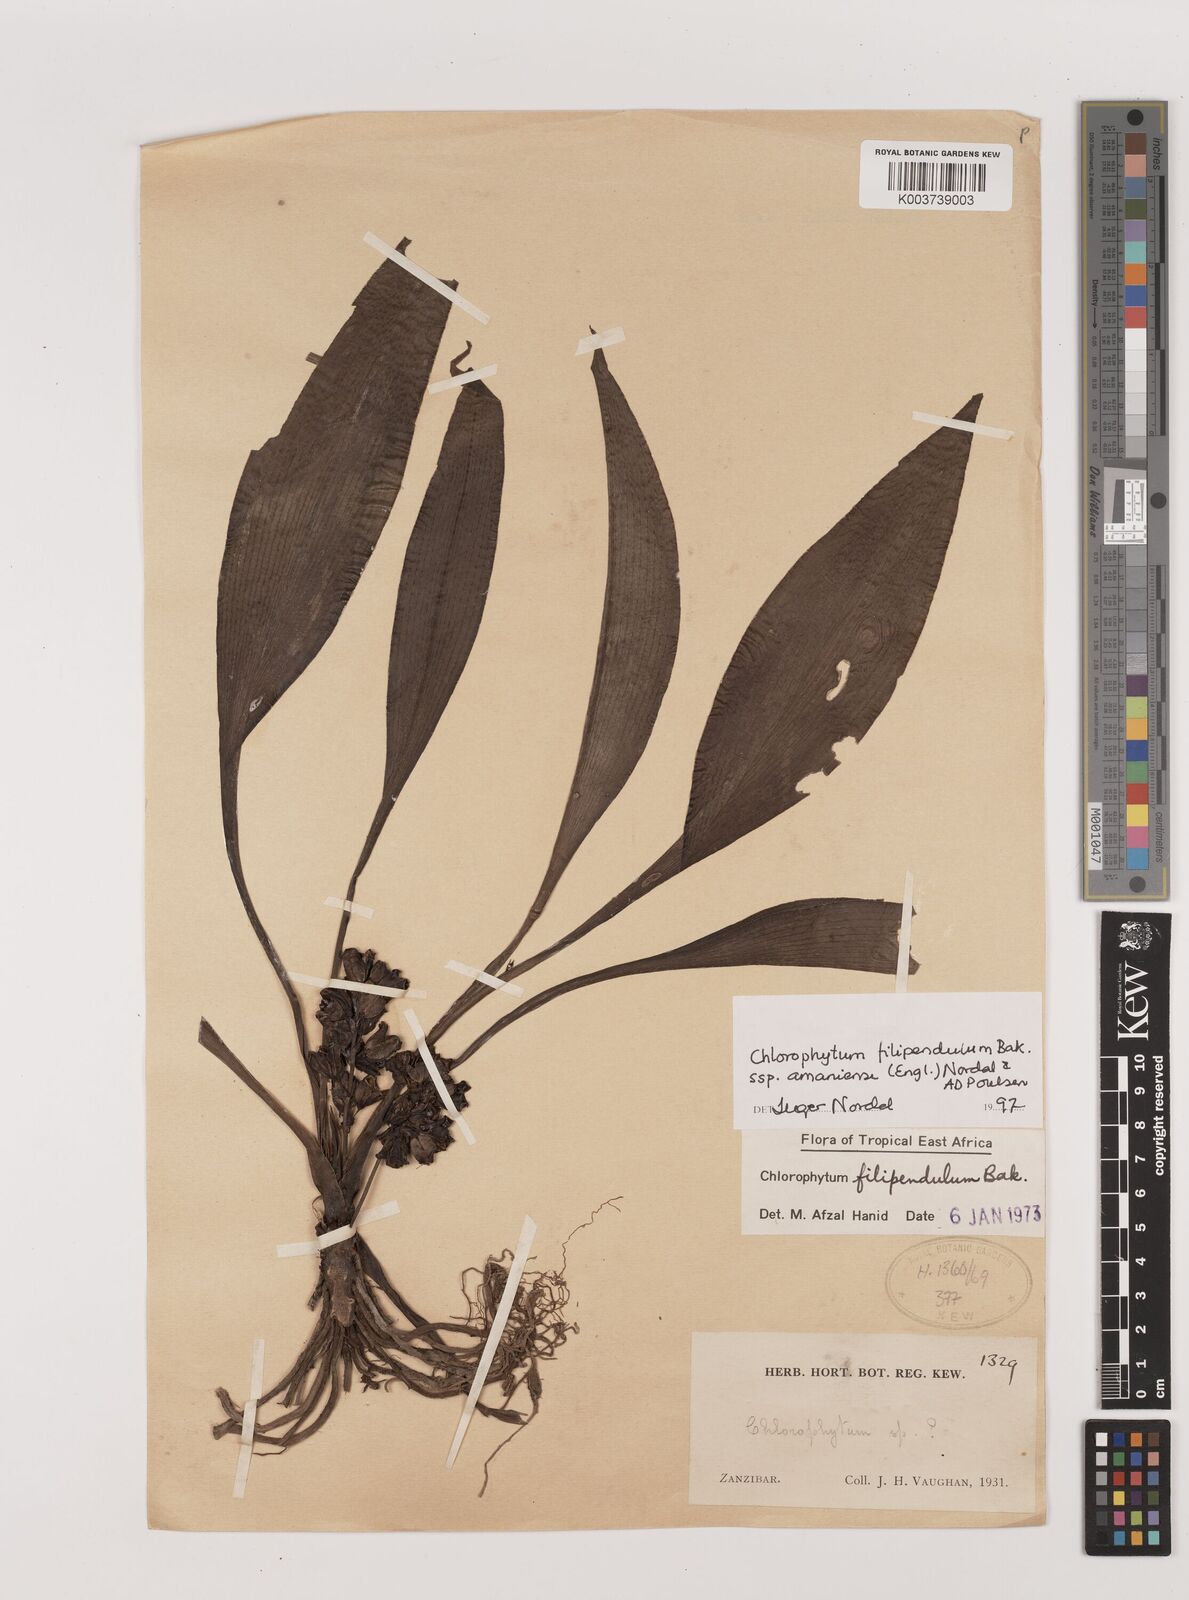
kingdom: Plantae
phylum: Tracheophyta
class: Liliopsida
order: Asparagales
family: Asparagaceae
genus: Chlorophytum
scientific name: Chlorophytum filipendulum
